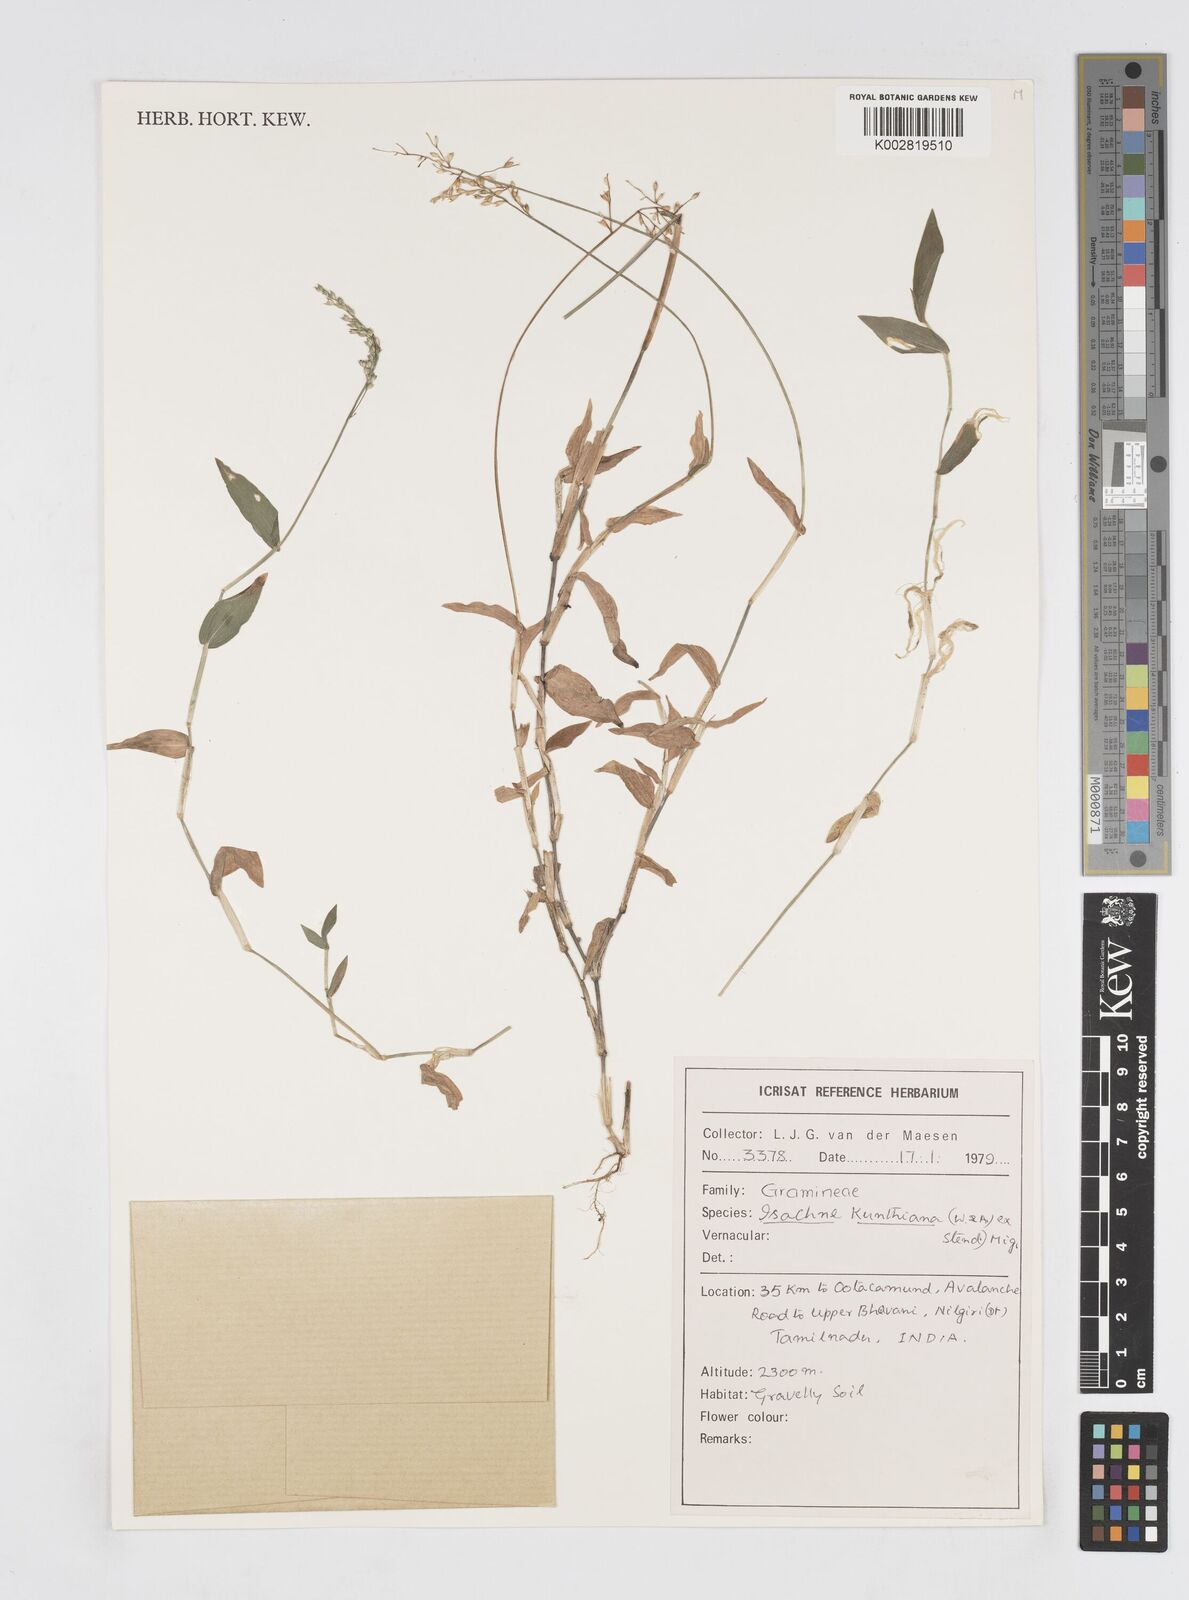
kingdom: Plantae
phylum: Tracheophyta
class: Liliopsida
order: Poales
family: Poaceae
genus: Isachne
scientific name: Isachne kunthiana
